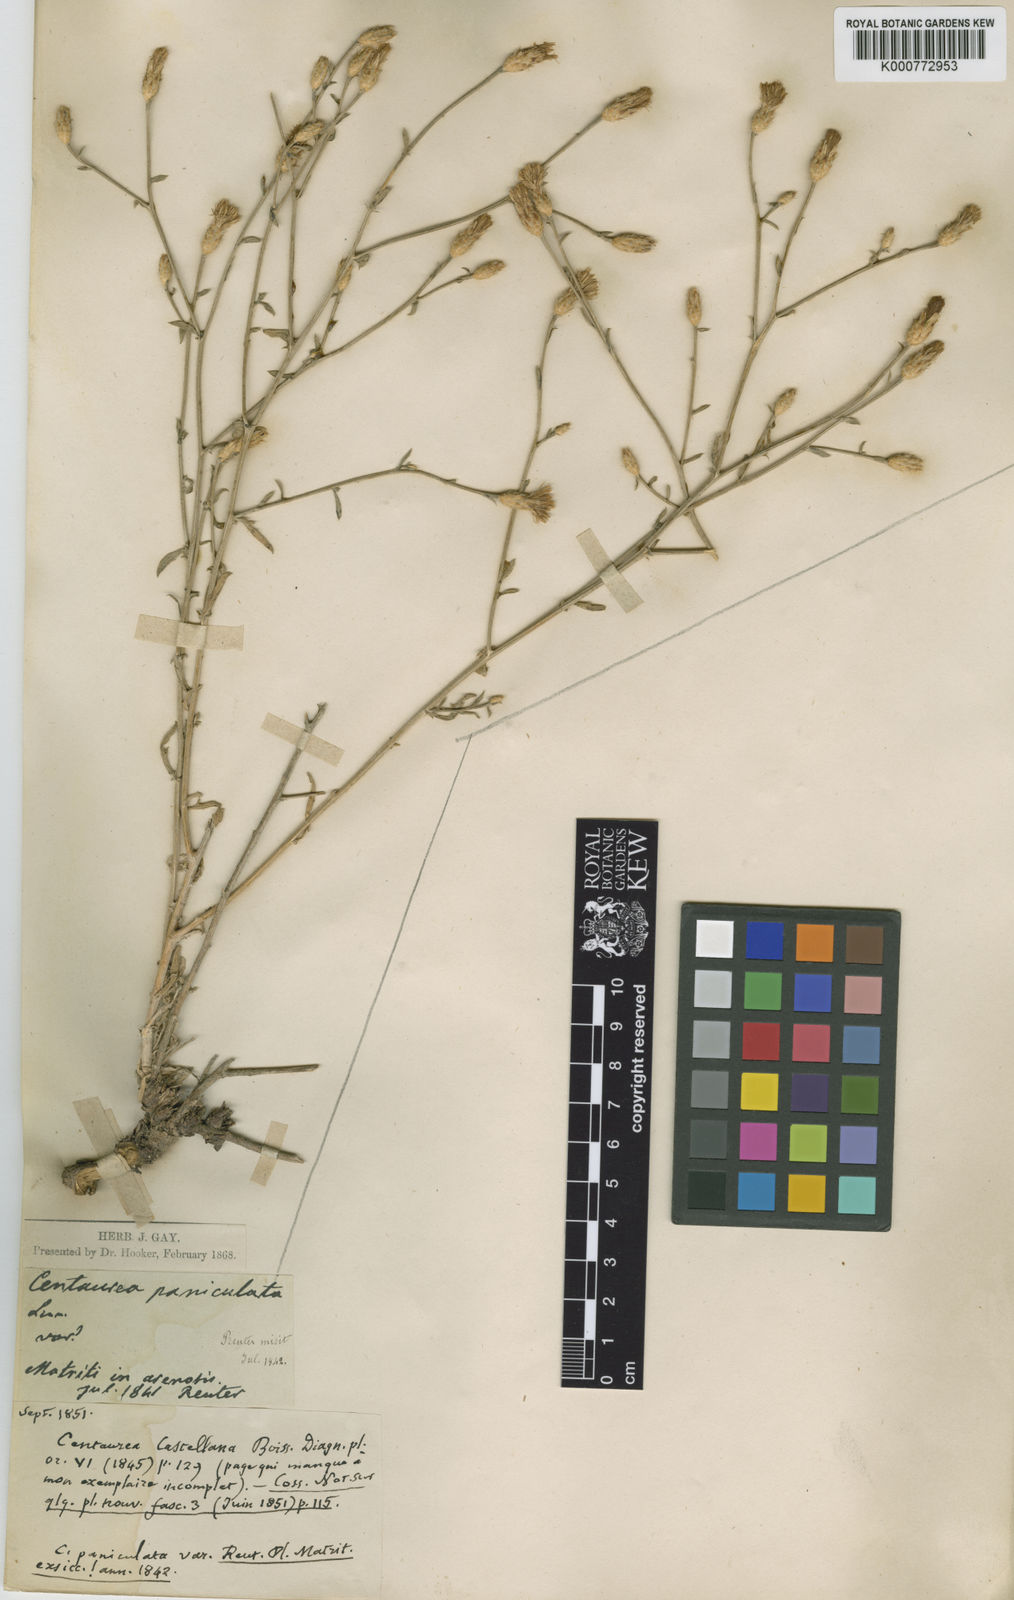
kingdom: Plantae
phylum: Tracheophyta
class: Magnoliopsida
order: Asterales
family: Asteraceae
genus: Centaurea
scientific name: Centaurea paniculata
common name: Jersey knapweed
